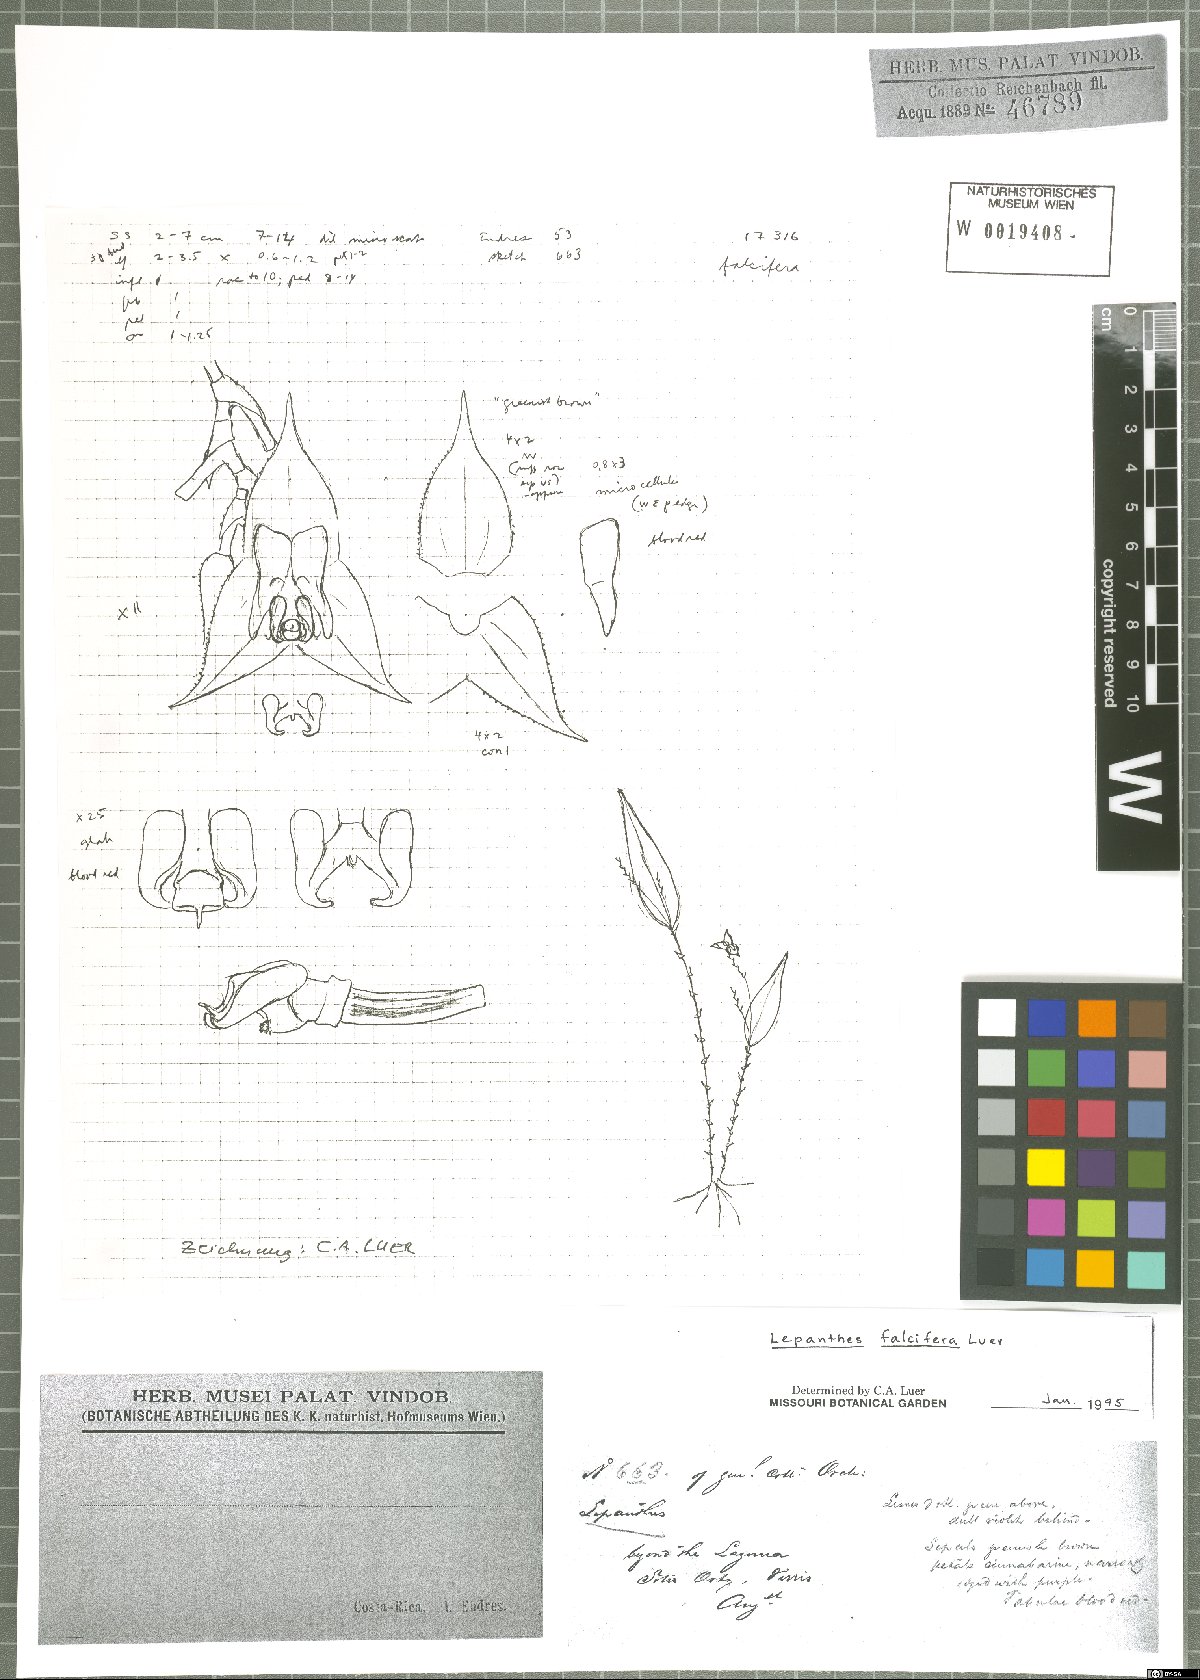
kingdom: Plantae
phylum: Tracheophyta
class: Liliopsida
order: Asparagales
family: Orchidaceae
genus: Lepanthes
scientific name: Lepanthes falcifera
